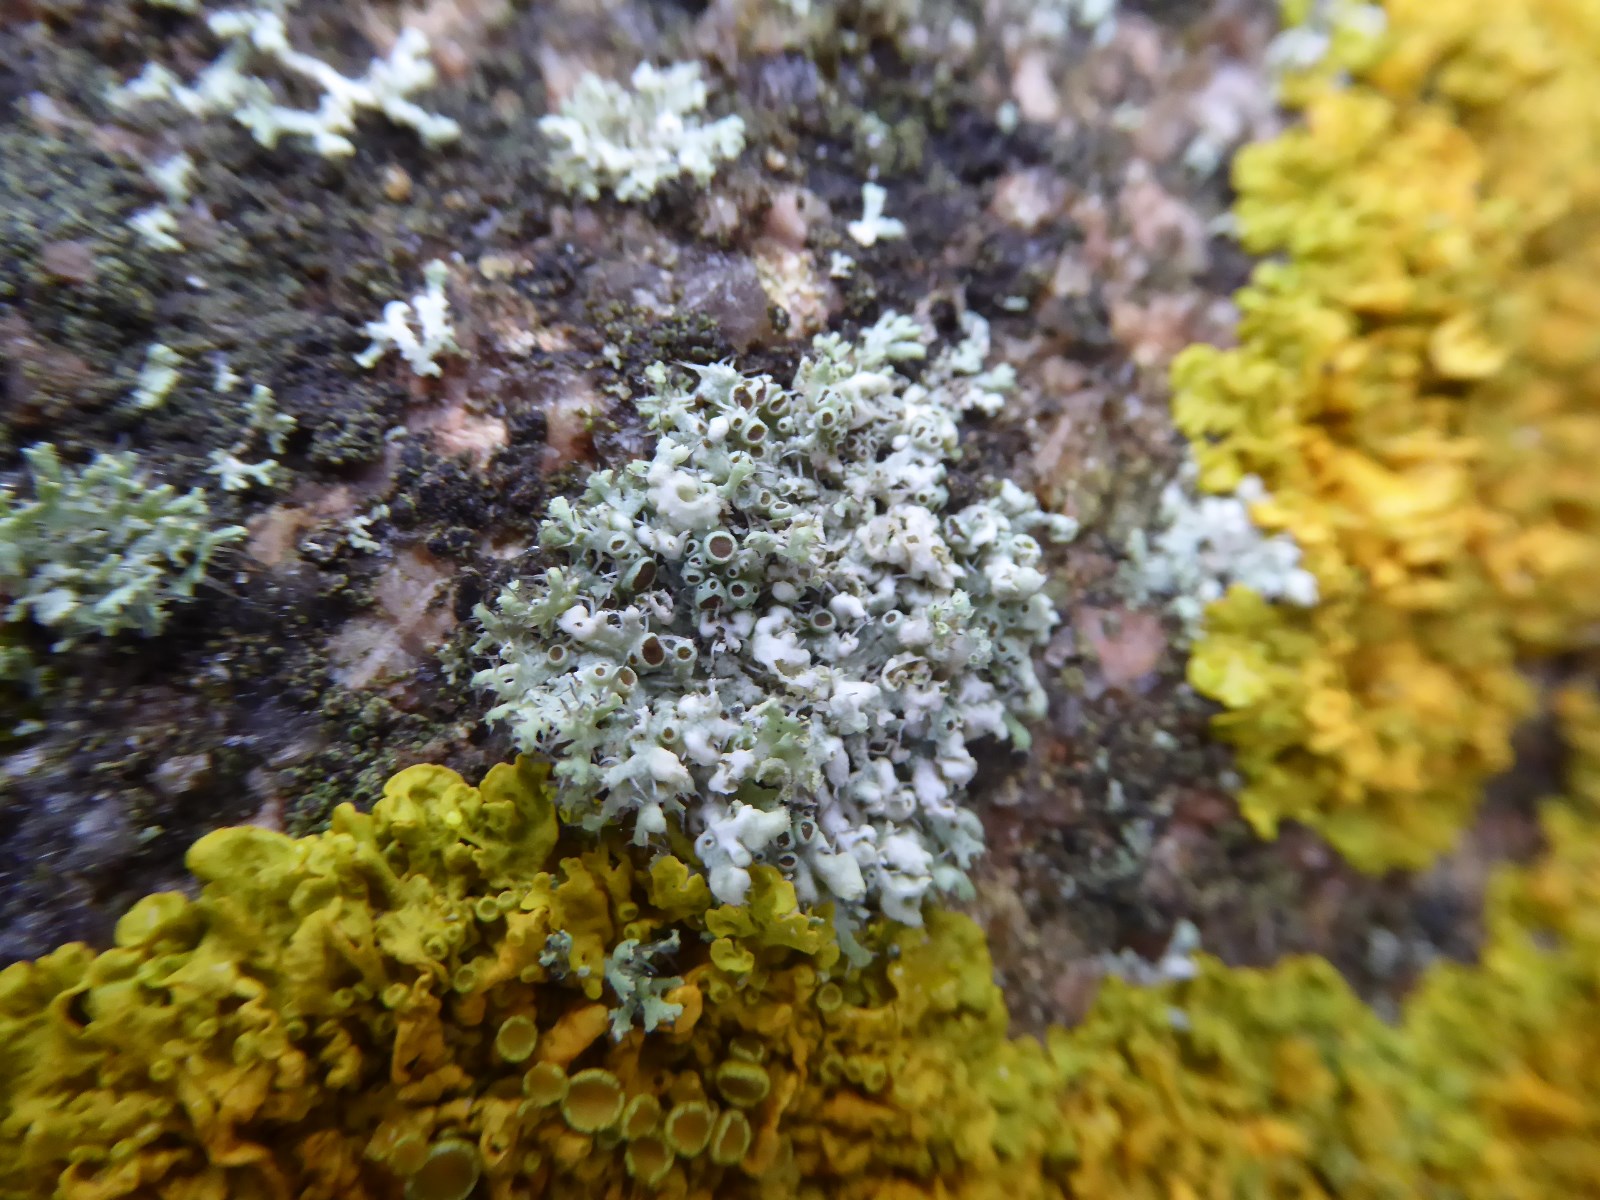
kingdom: Fungi
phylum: Ascomycota
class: Lecanoromycetes
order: Caliciales
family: Physciaceae
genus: Physcia
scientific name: Physcia adscendens
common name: hætte-rosetlav
